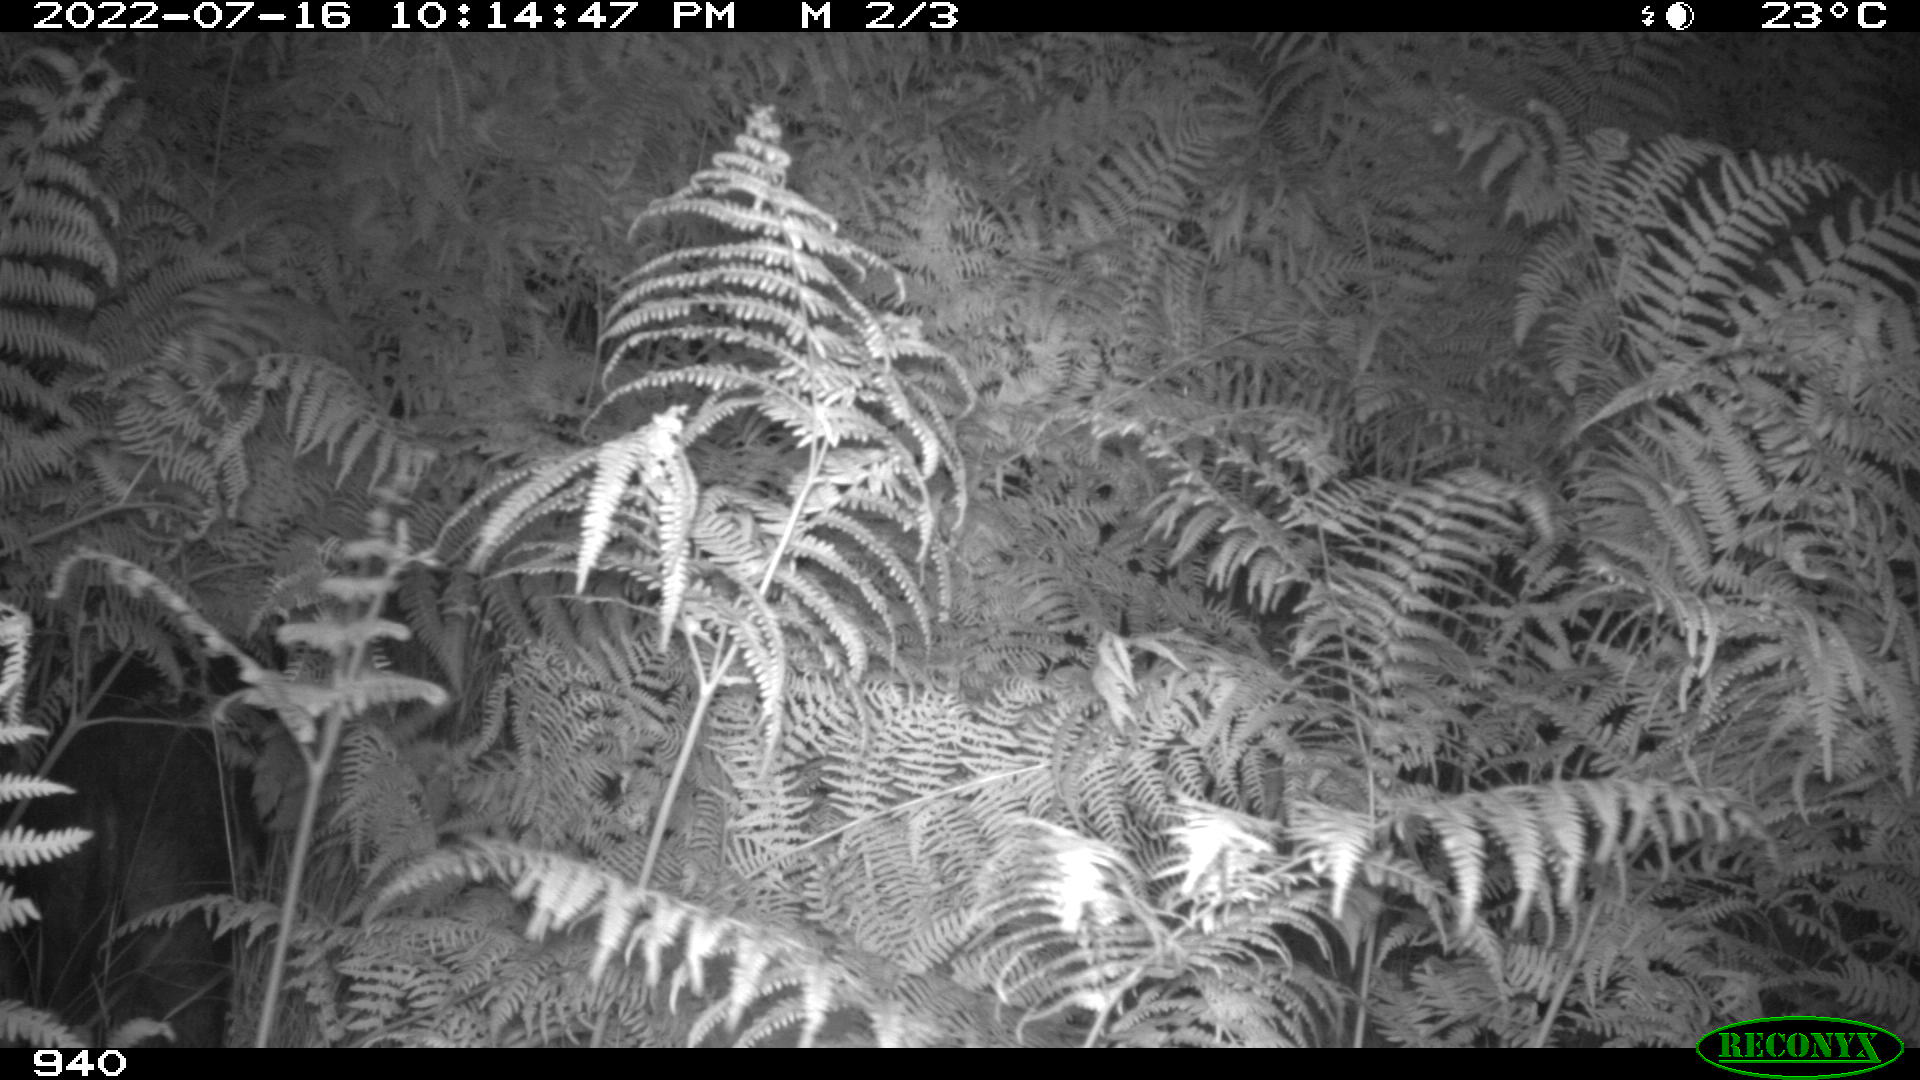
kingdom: Animalia
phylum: Chordata
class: Mammalia
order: Artiodactyla
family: Suidae
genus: Sus
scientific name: Sus scrofa
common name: Wild boar
